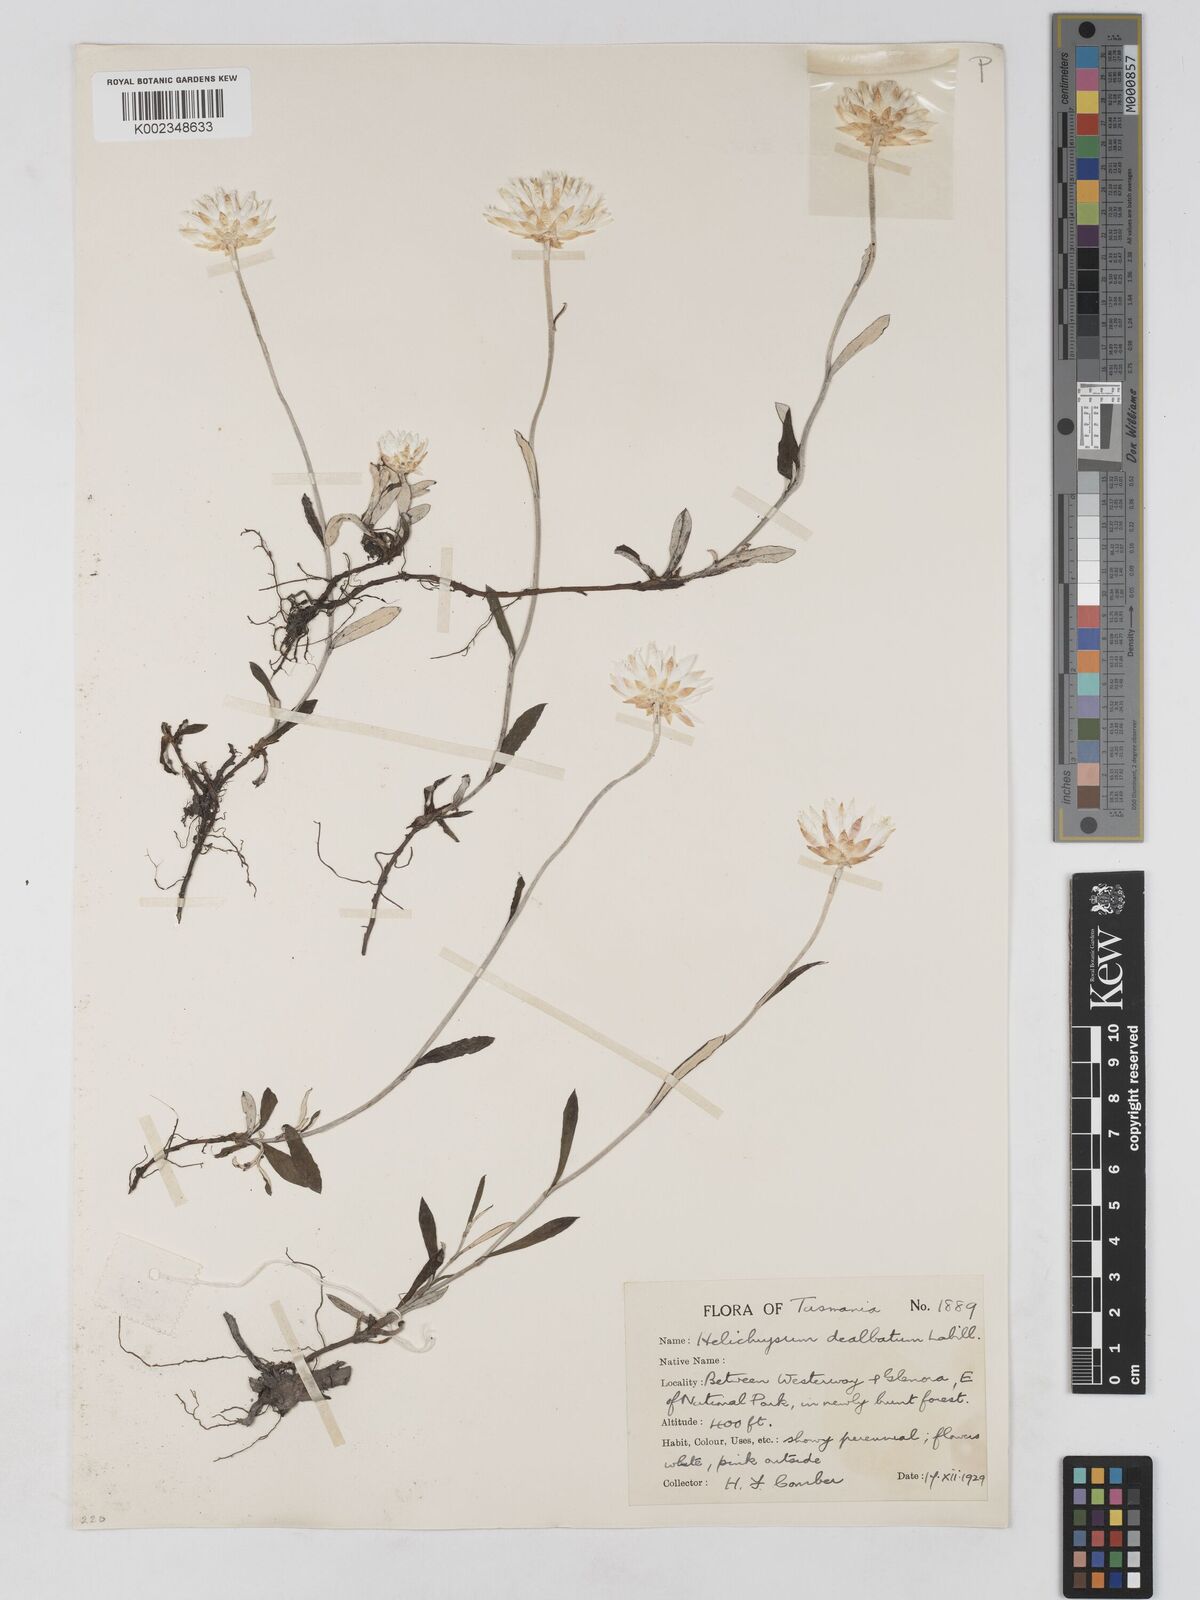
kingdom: Plantae
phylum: Tracheophyta
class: Magnoliopsida
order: Asterales
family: Asteraceae
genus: Argentipallium
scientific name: Argentipallium dealbatum
